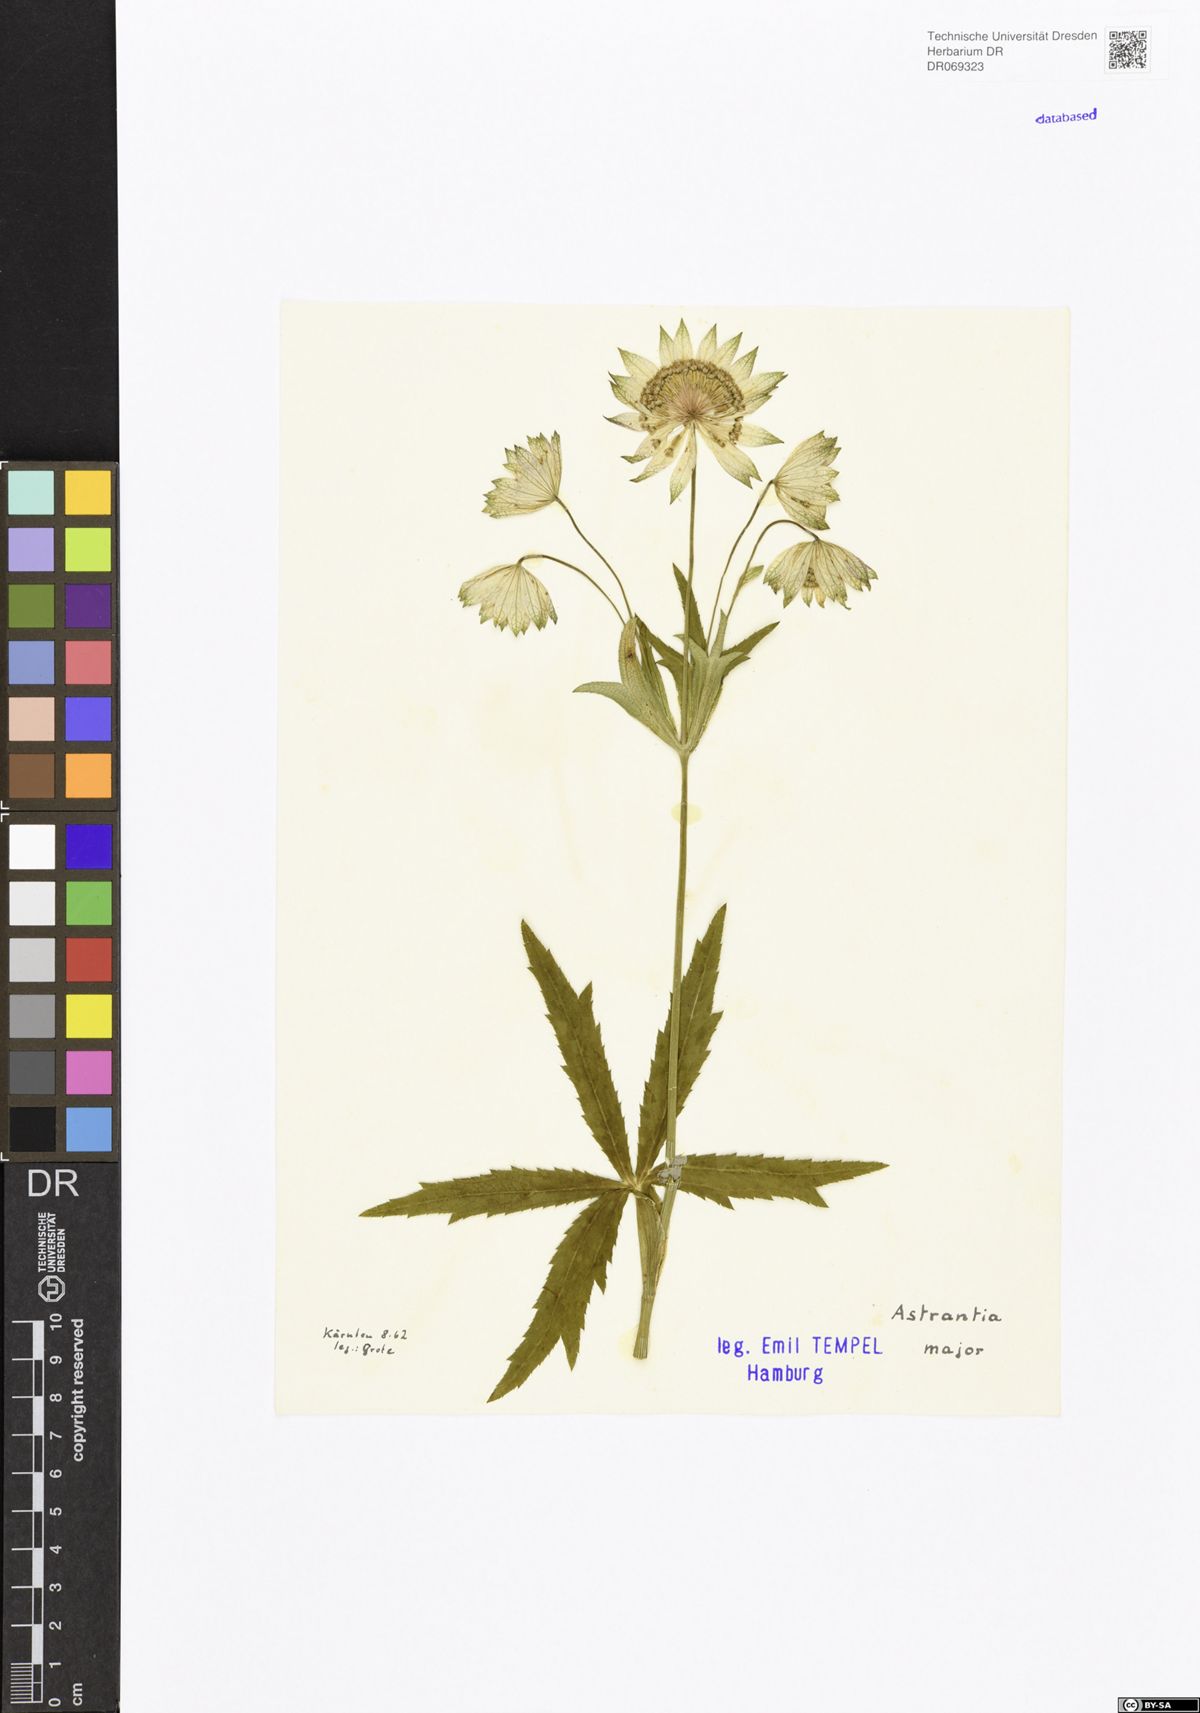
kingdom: Plantae
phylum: Tracheophyta
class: Magnoliopsida
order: Apiales
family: Apiaceae
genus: Astrantia
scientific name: Astrantia major
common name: Greater masterwort
